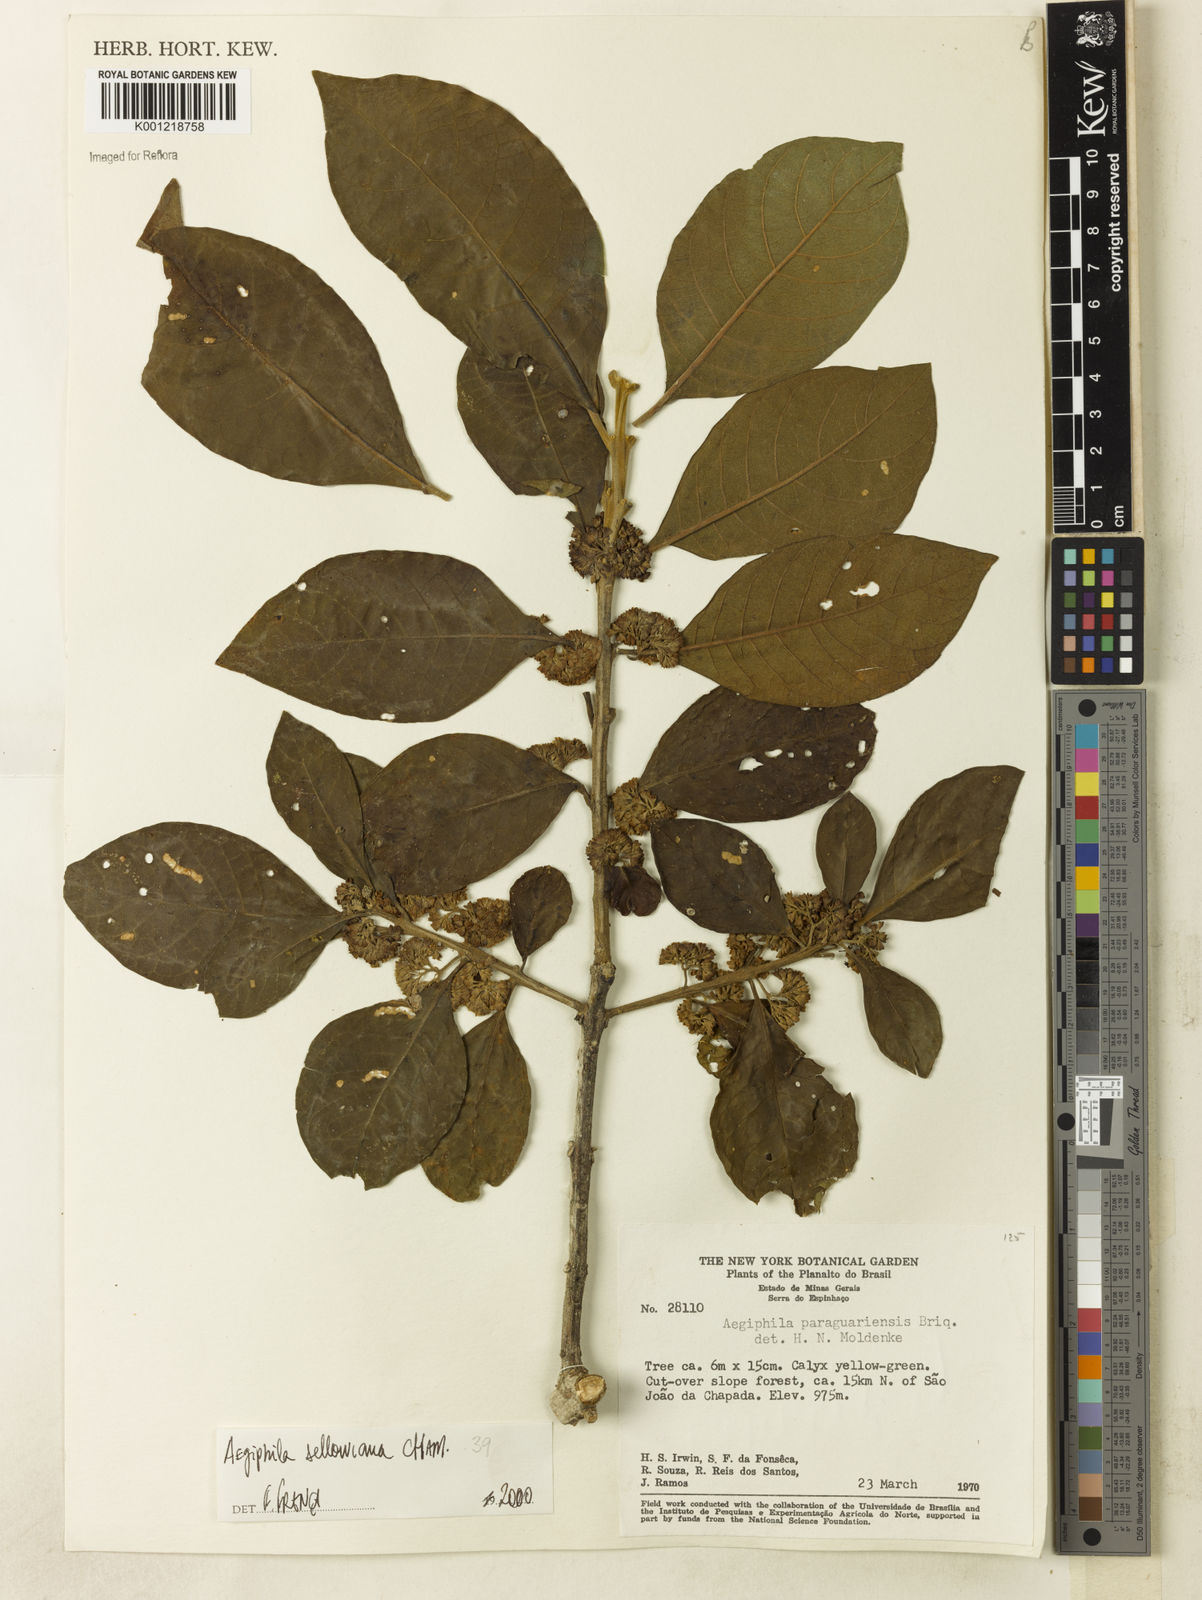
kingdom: Plantae
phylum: Tracheophyta
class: Magnoliopsida
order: Lamiales
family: Lamiaceae
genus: Aegiphila
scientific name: Aegiphila verticillata
